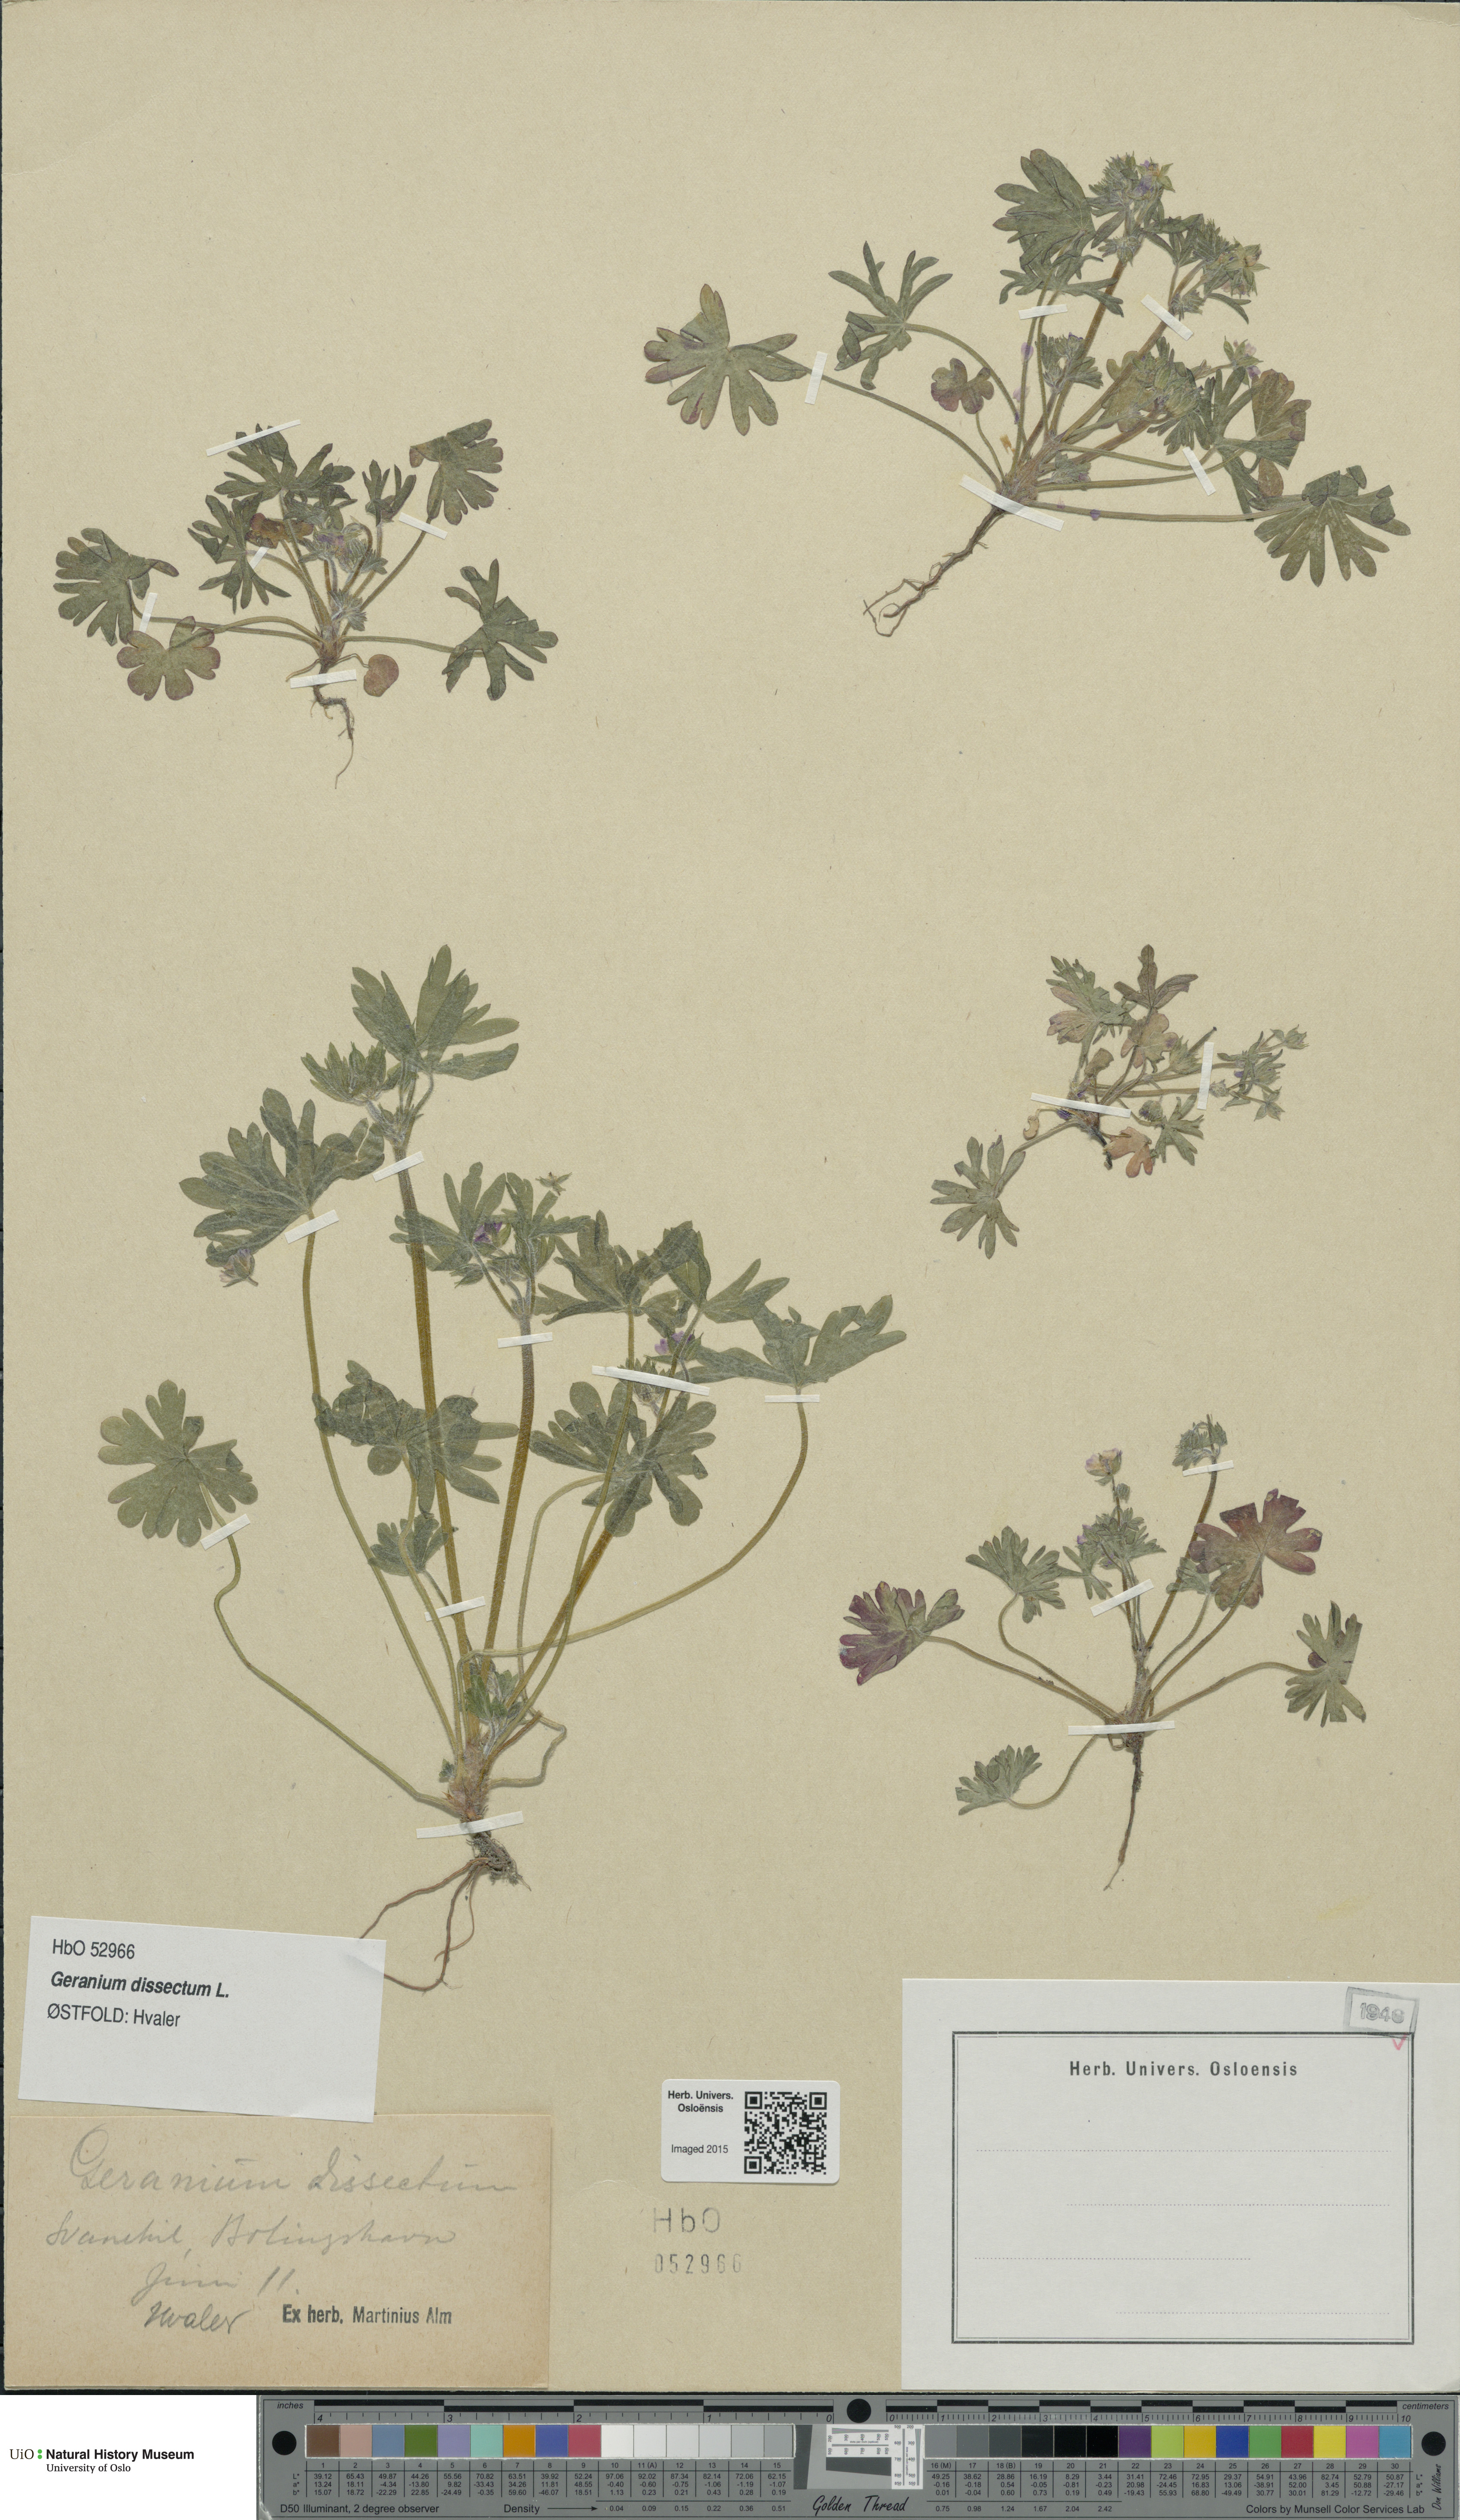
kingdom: Plantae
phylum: Tracheophyta
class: Magnoliopsida
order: Geraniales
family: Geraniaceae
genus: Geranium
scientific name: Geranium dissectum
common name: Cut-leaved crane's-bill
